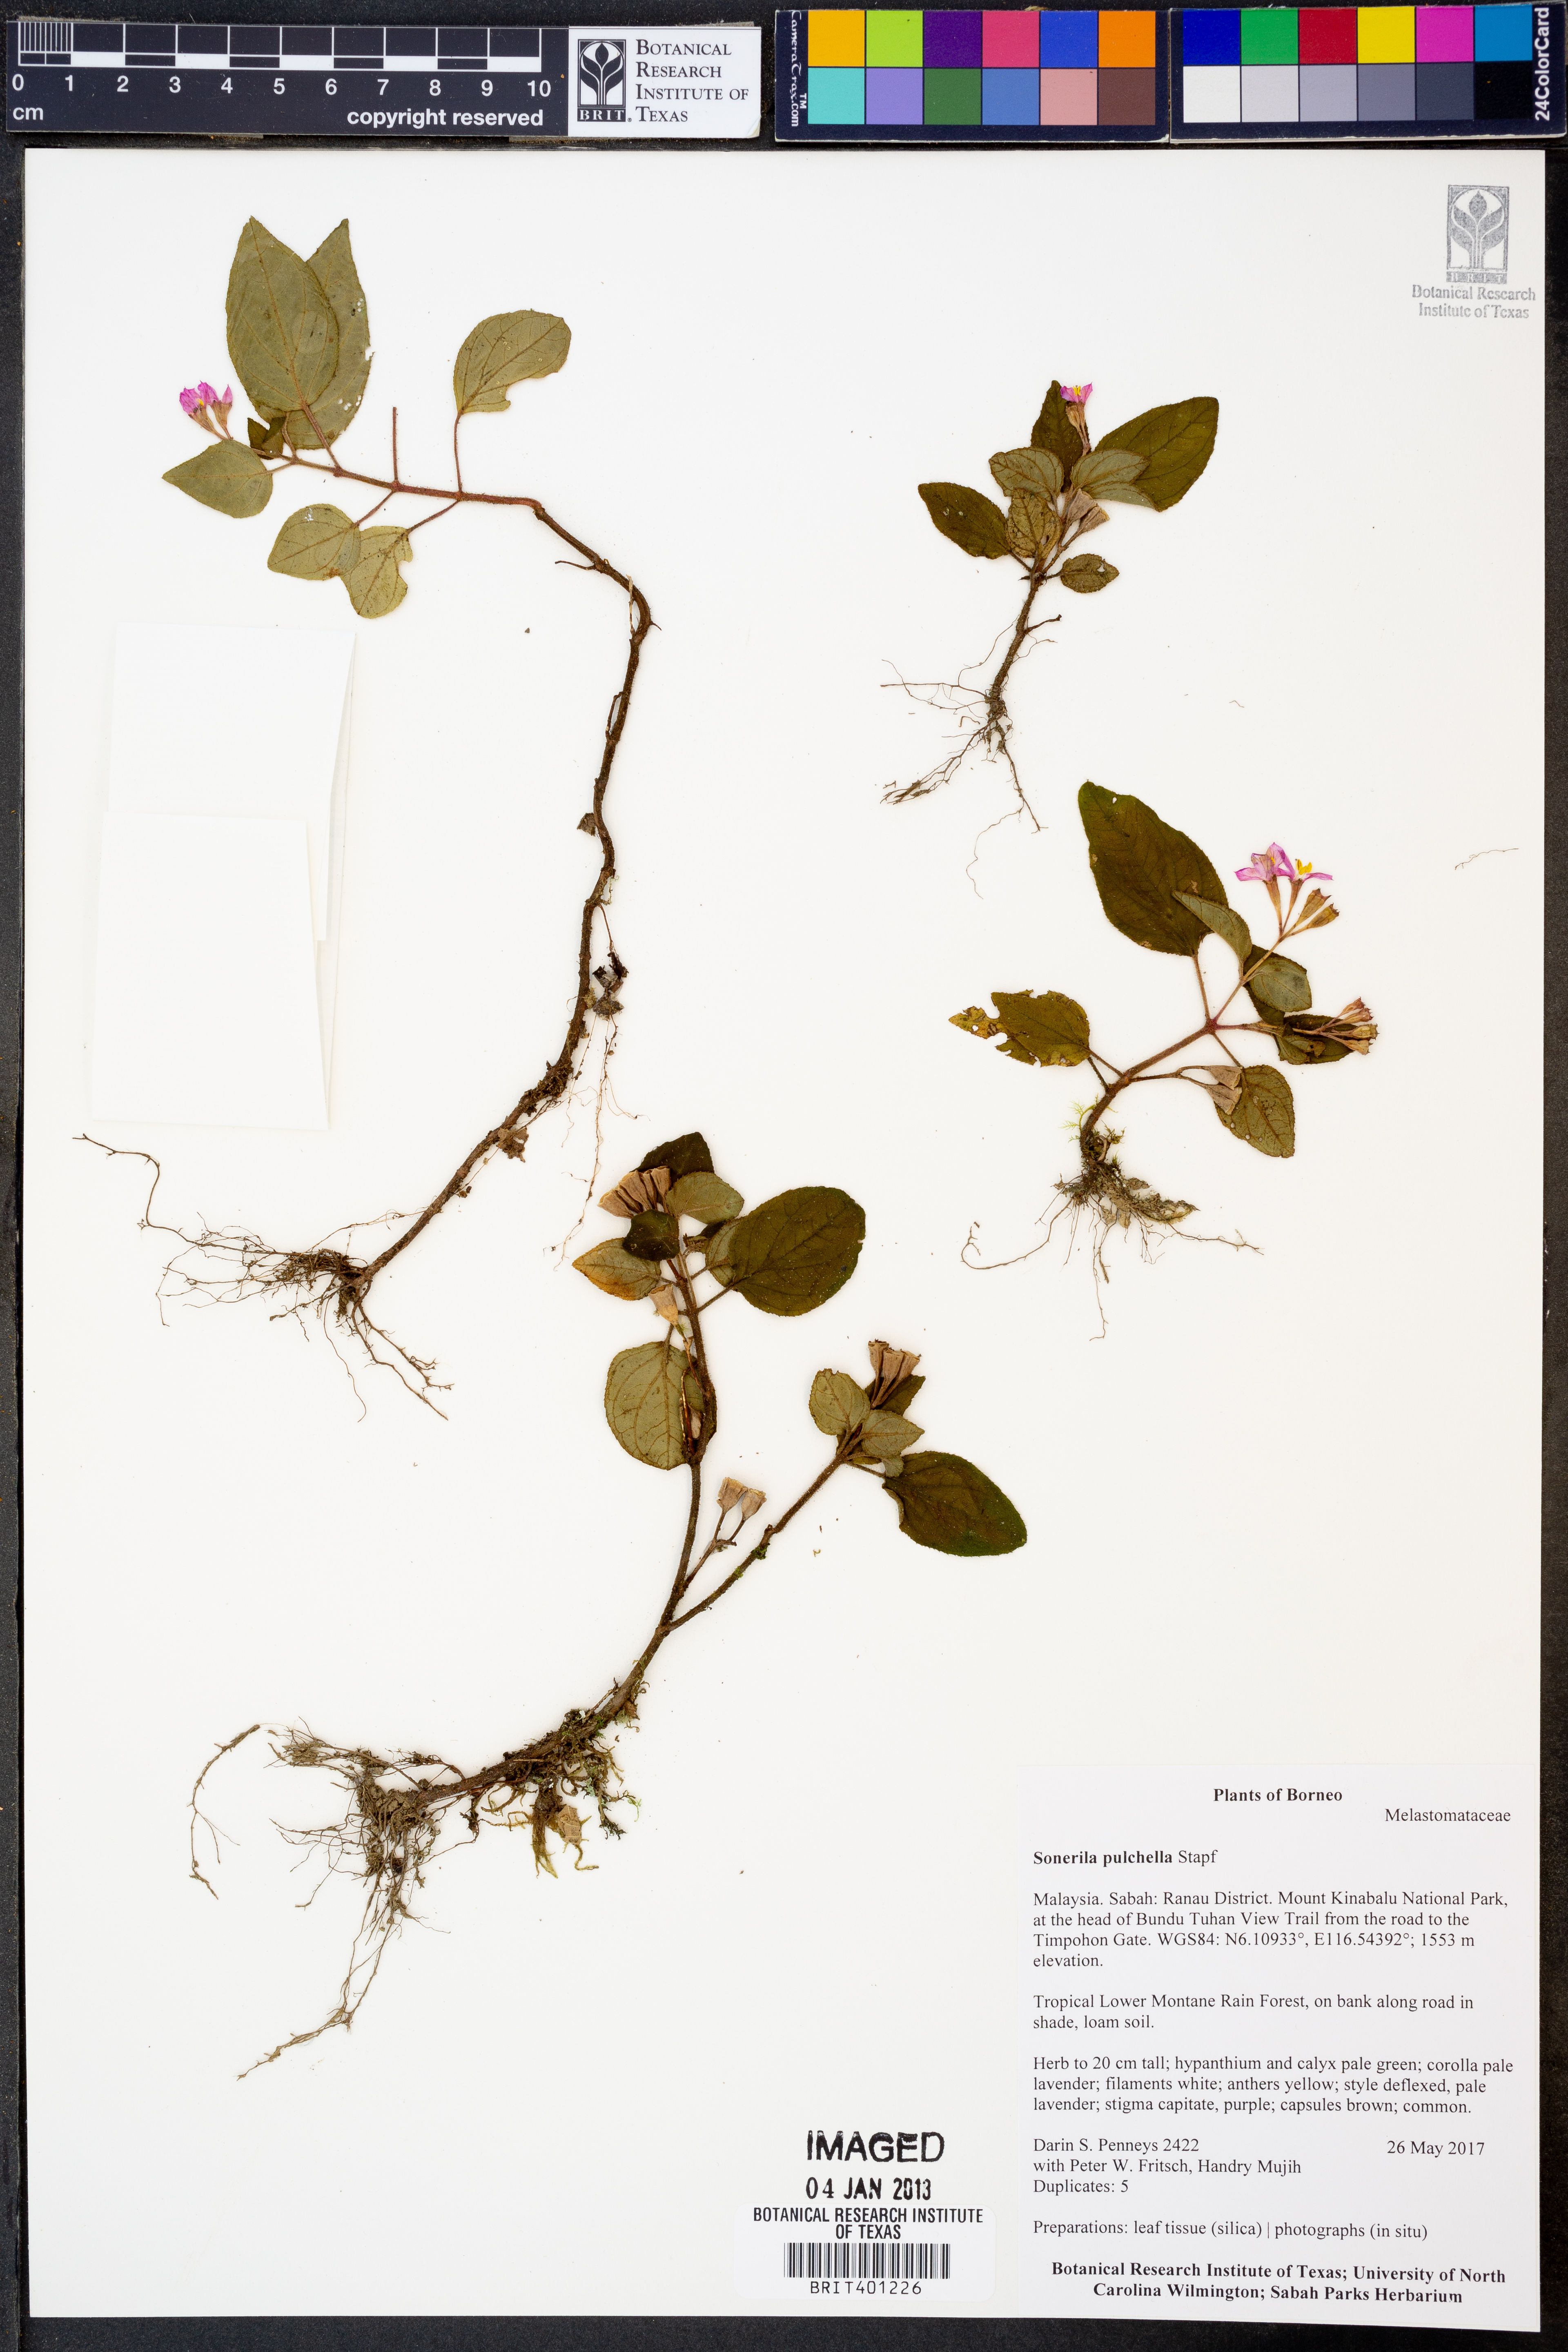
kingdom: Plantae
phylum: Tracheophyta
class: Magnoliopsida
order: Myrtales
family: Melastomataceae
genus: Sonerila
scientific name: Sonerila pulchella
